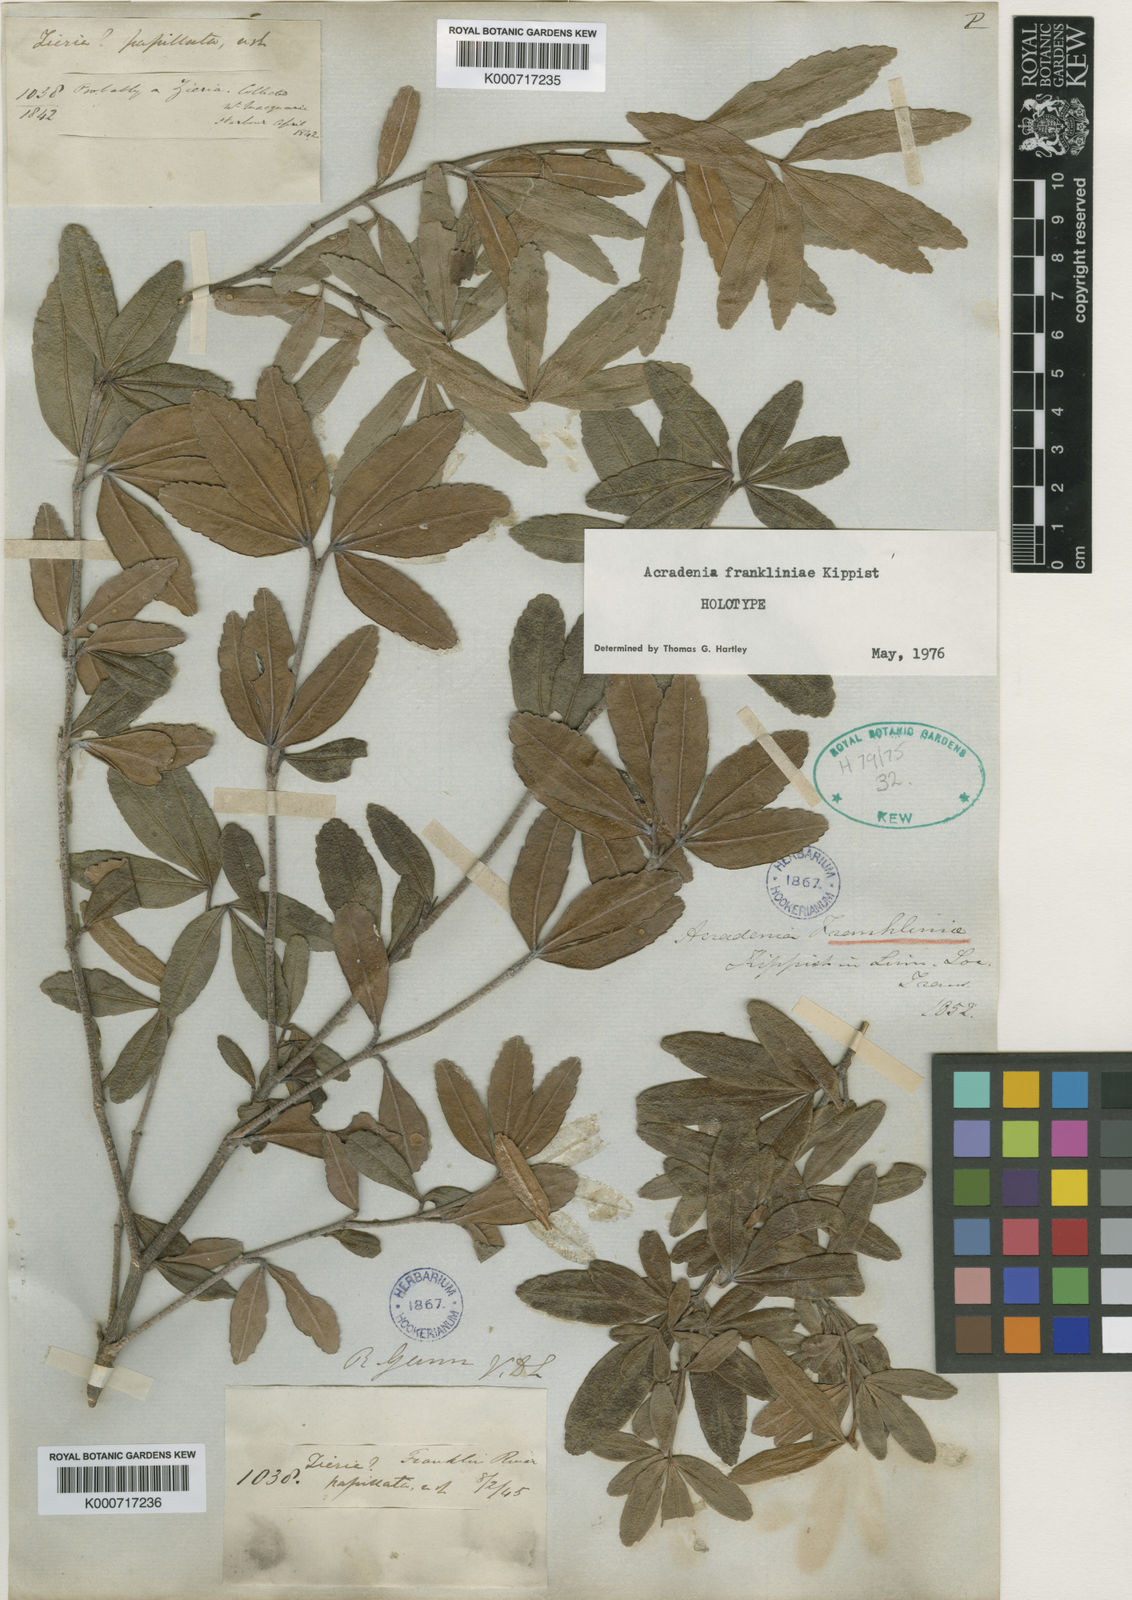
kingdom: Plantae
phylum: Tracheophyta
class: Magnoliopsida
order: Sapindales
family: Rutaceae
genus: Acradenia
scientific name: Acradenia frankliniae
